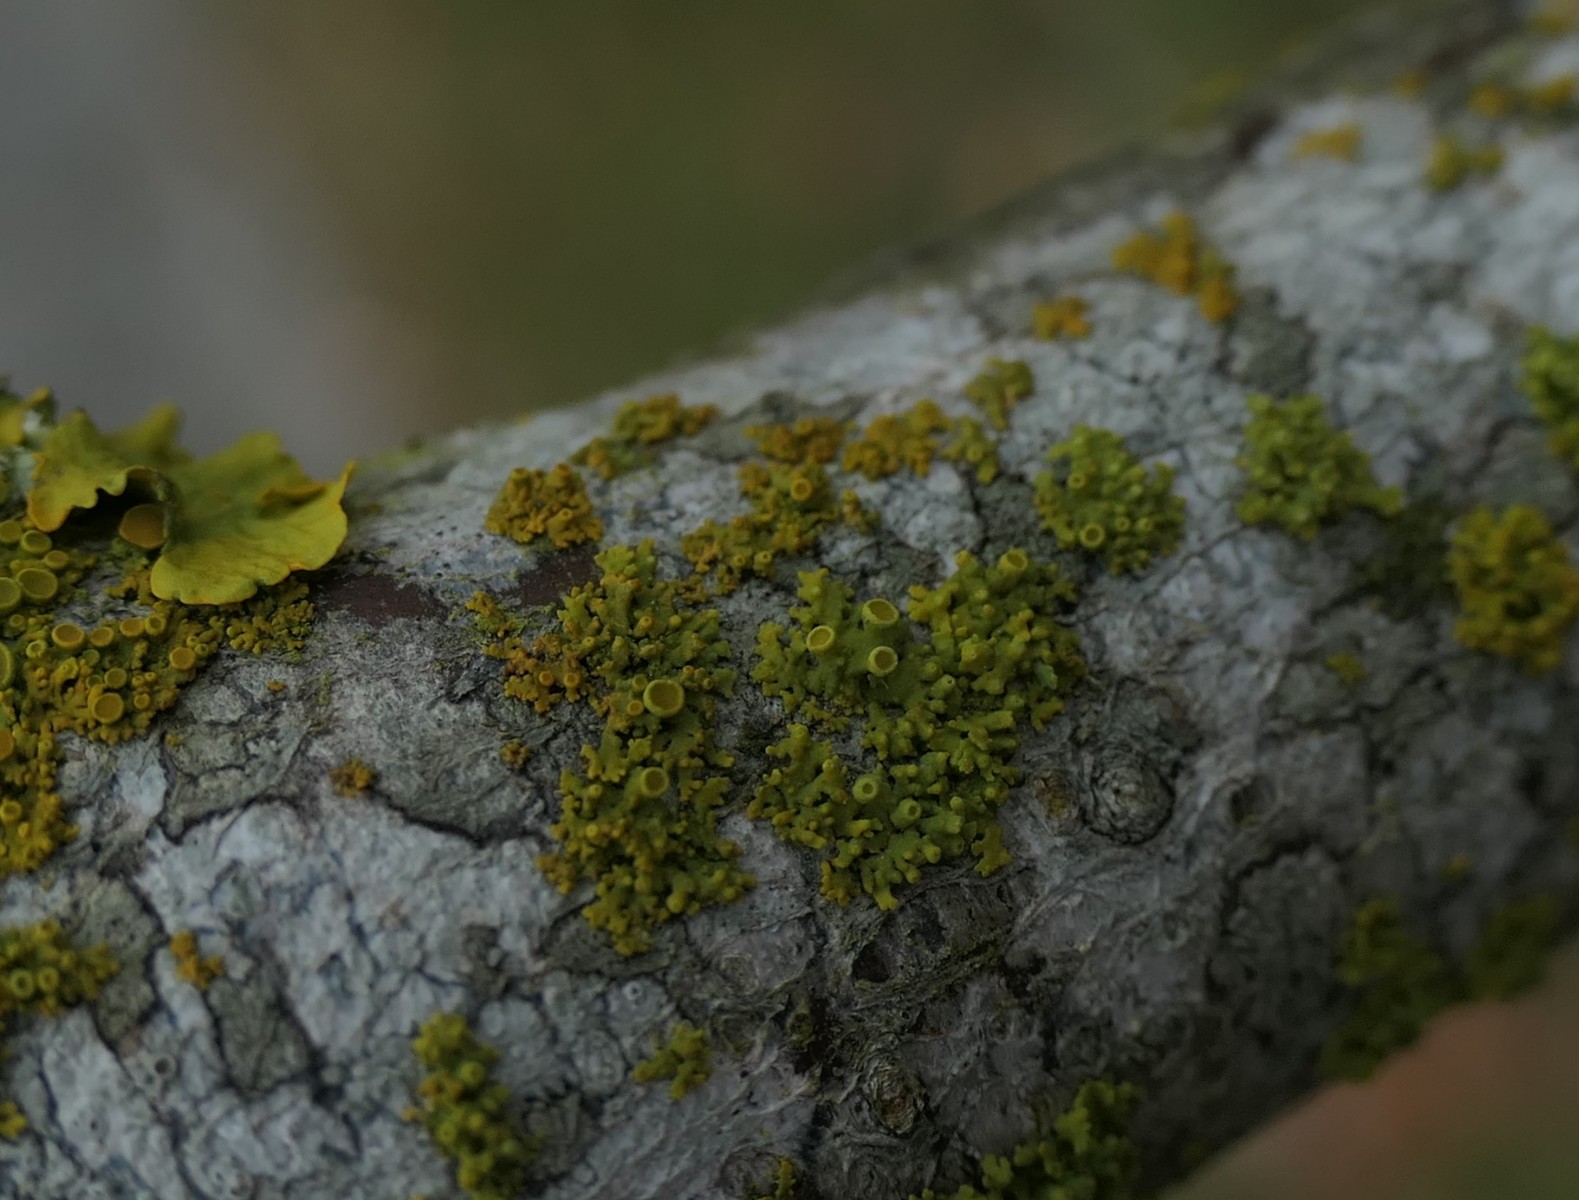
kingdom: Fungi
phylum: Ascomycota
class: Lecanoromycetes
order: Teloschistales
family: Teloschistaceae
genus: Polycauliona
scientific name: Polycauliona polycarpa
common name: mangefrugtet orangelav
